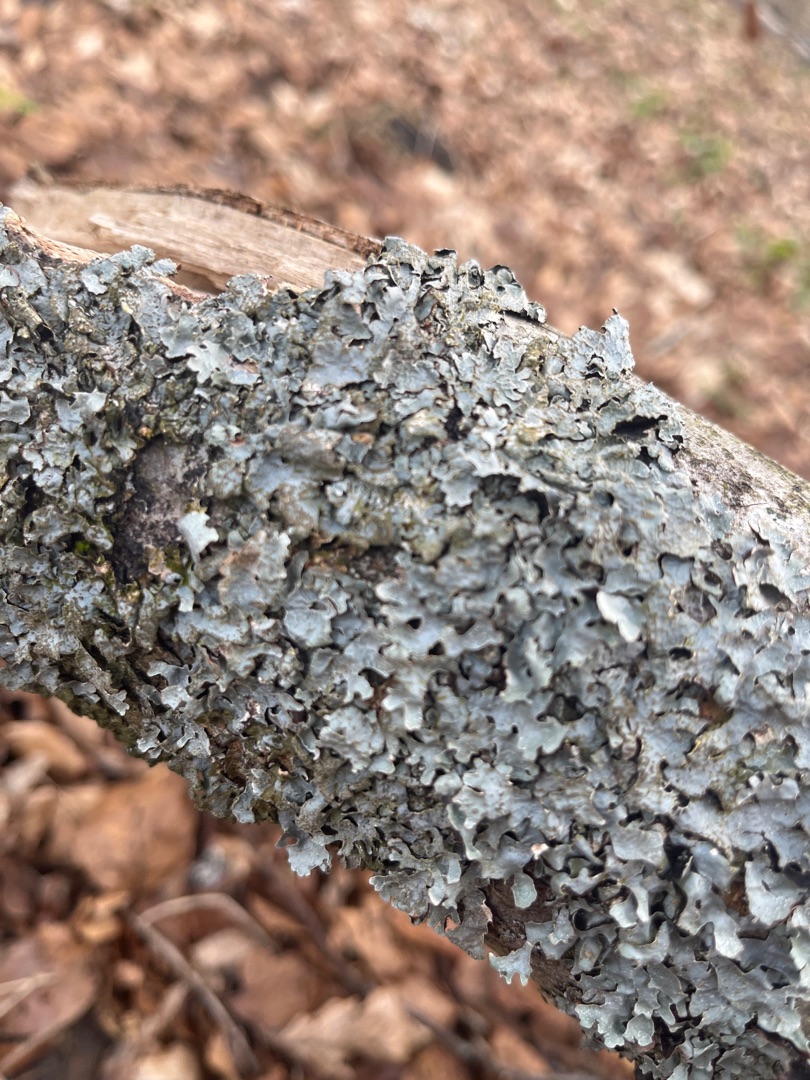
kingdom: Fungi
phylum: Ascomycota
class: Lecanoromycetes
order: Lecanorales
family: Parmeliaceae
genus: Parmelia
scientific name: Parmelia sulcata
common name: Rynket skållav
